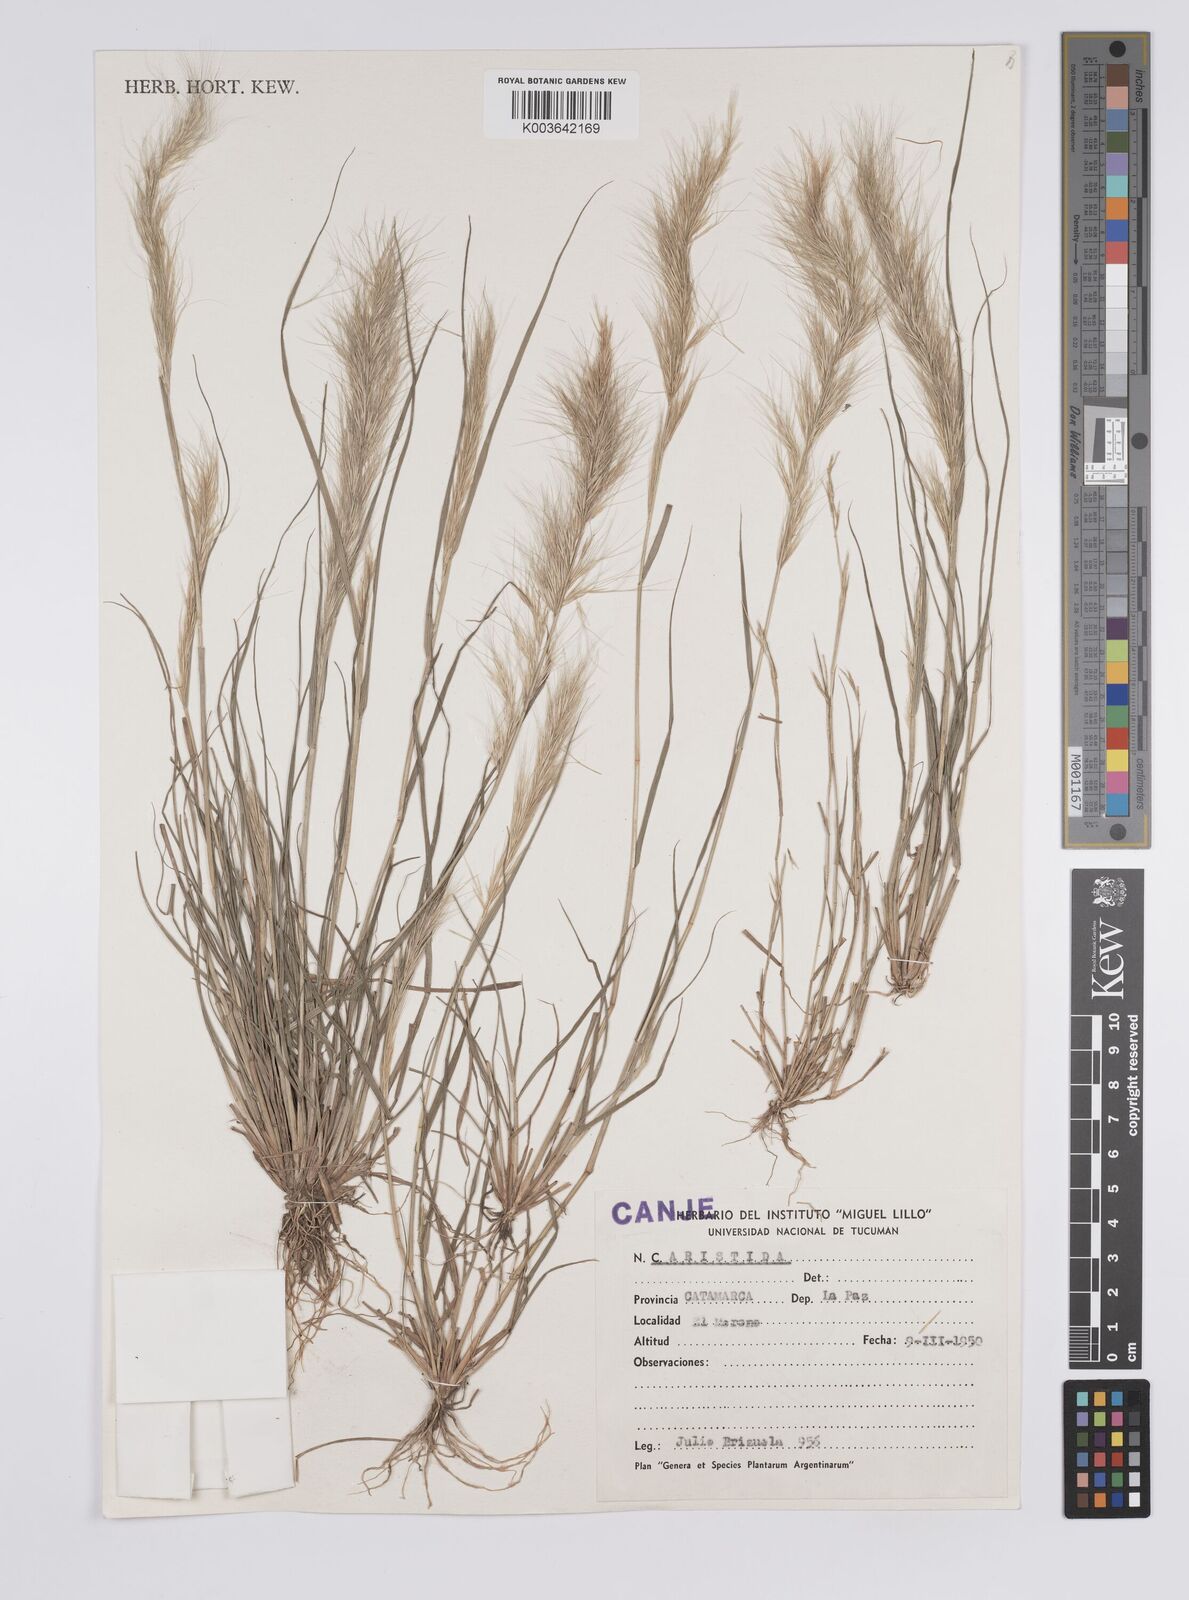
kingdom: Plantae
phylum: Tracheophyta
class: Liliopsida
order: Poales
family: Poaceae
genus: Aristida
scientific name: Aristida
